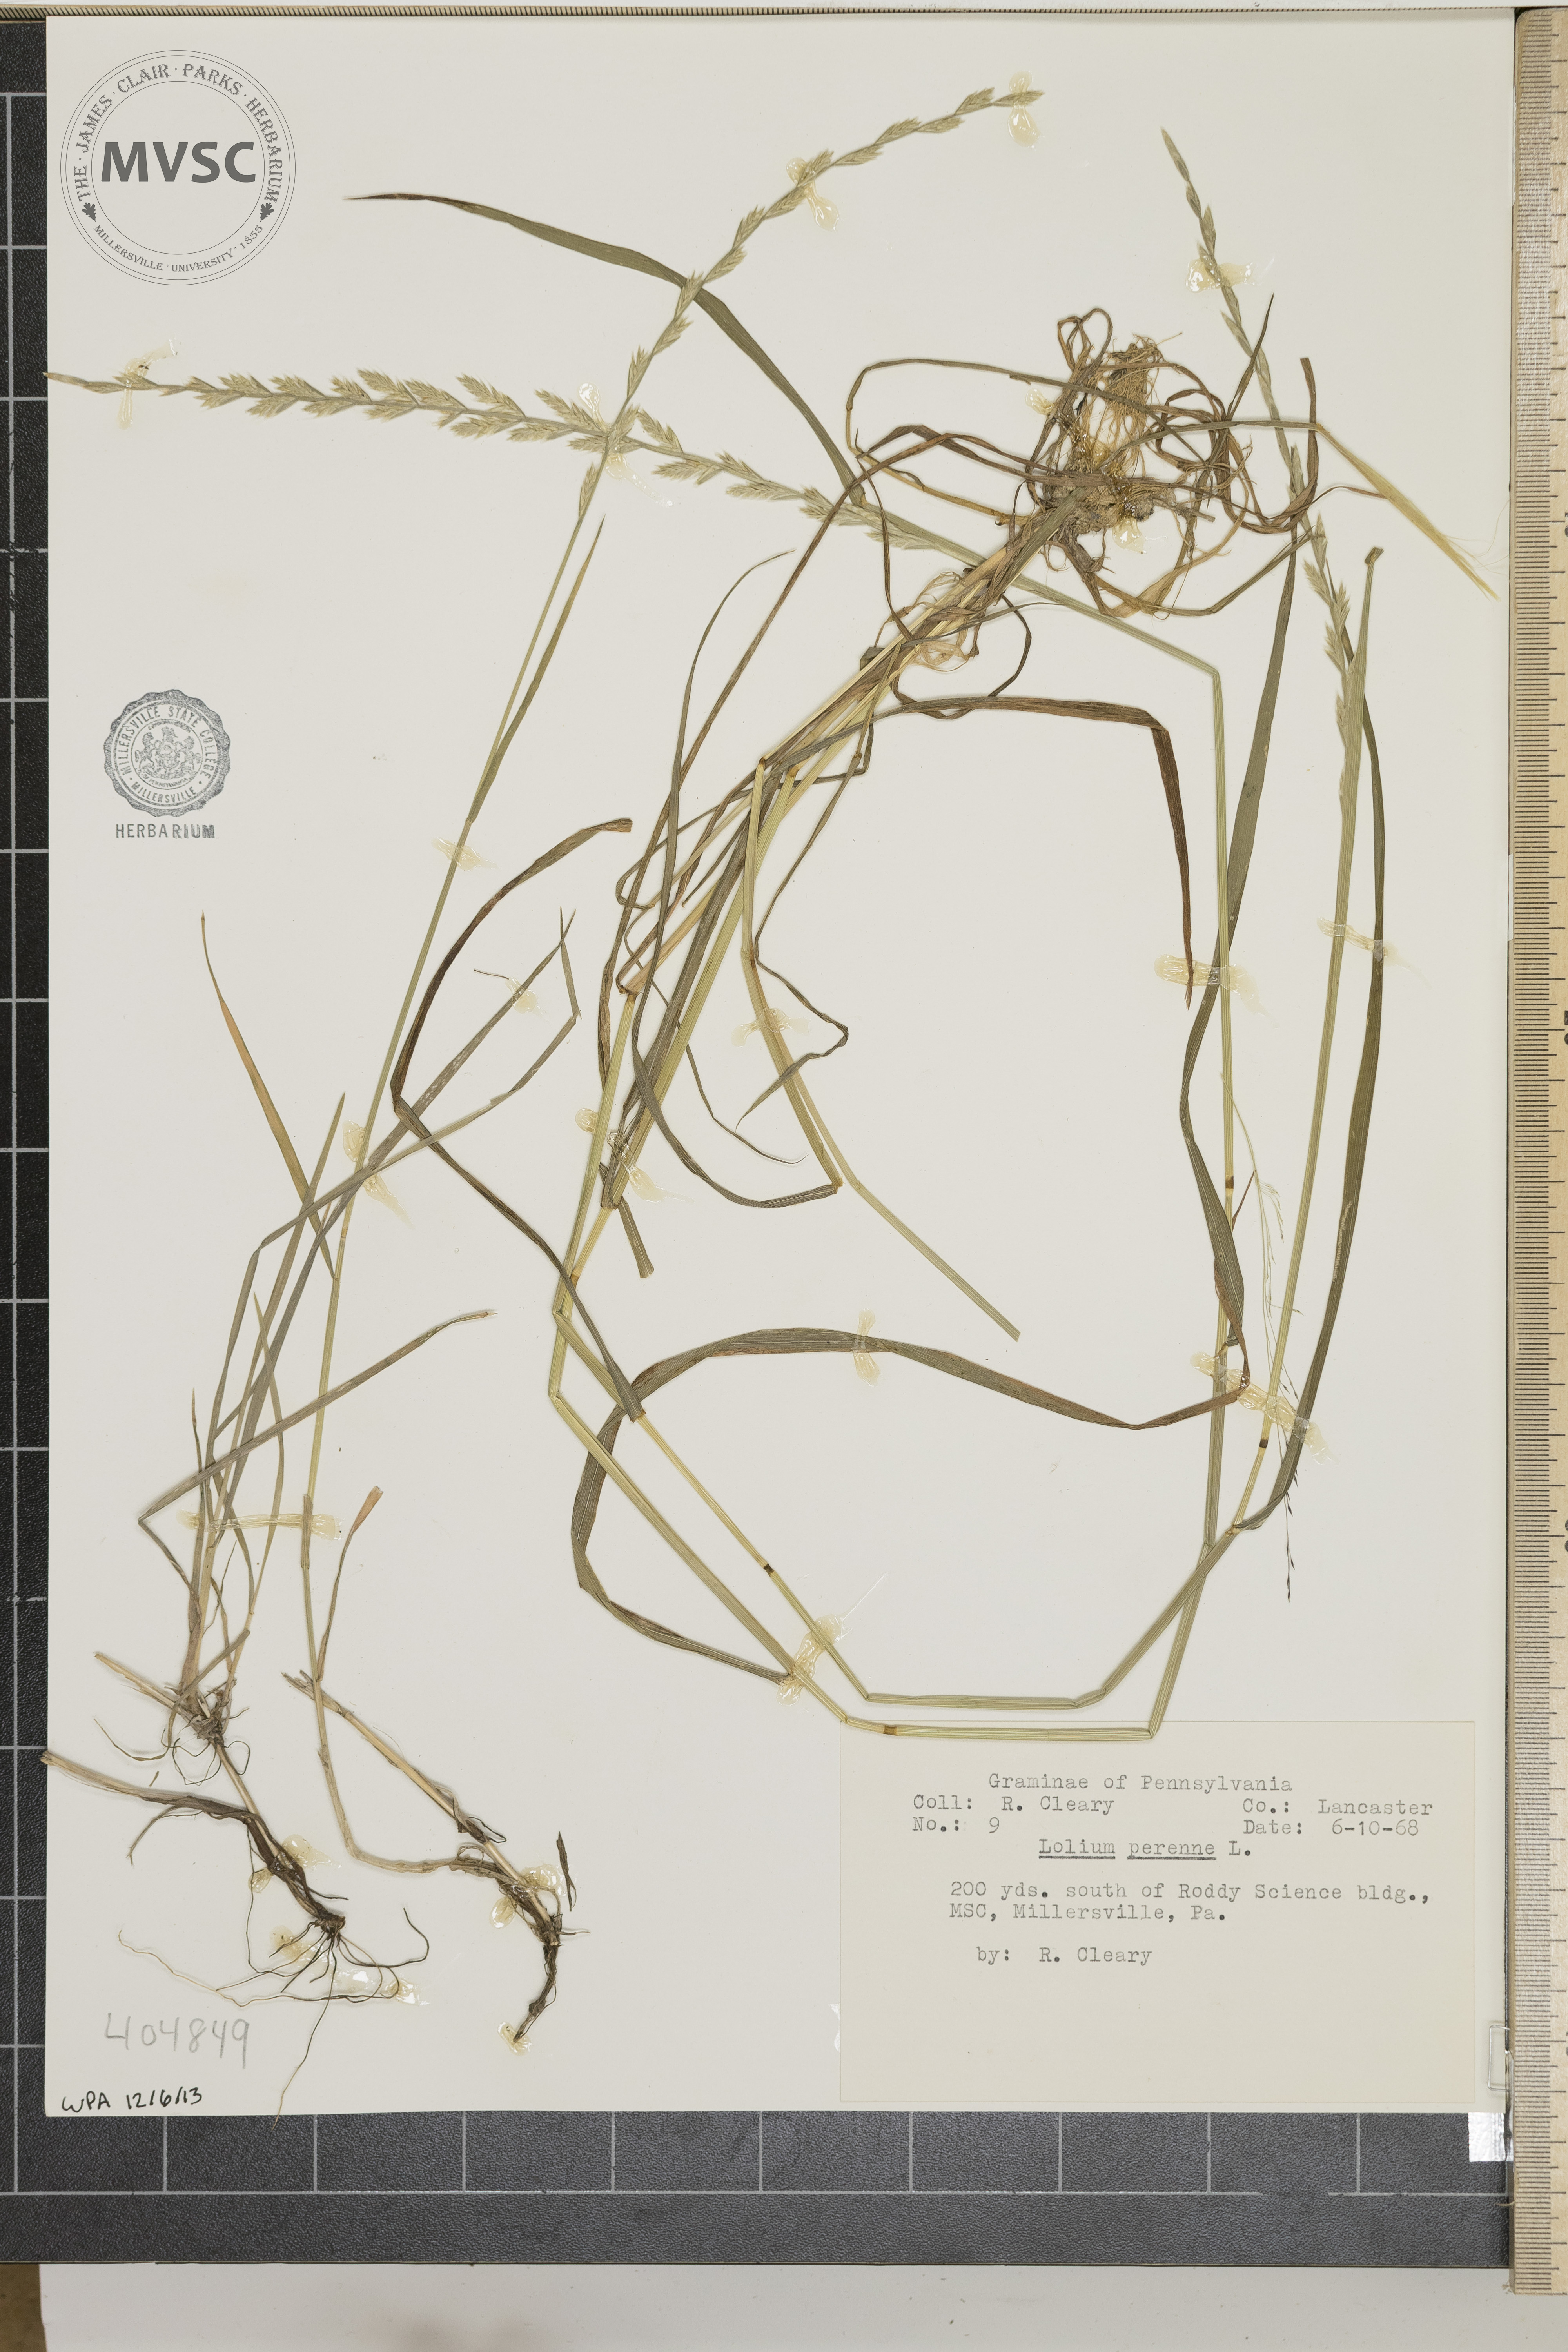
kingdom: Plantae
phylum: Tracheophyta
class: Liliopsida
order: Poales
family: Poaceae
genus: Lolium
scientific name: Lolium perenne
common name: Perennial ryegrass
